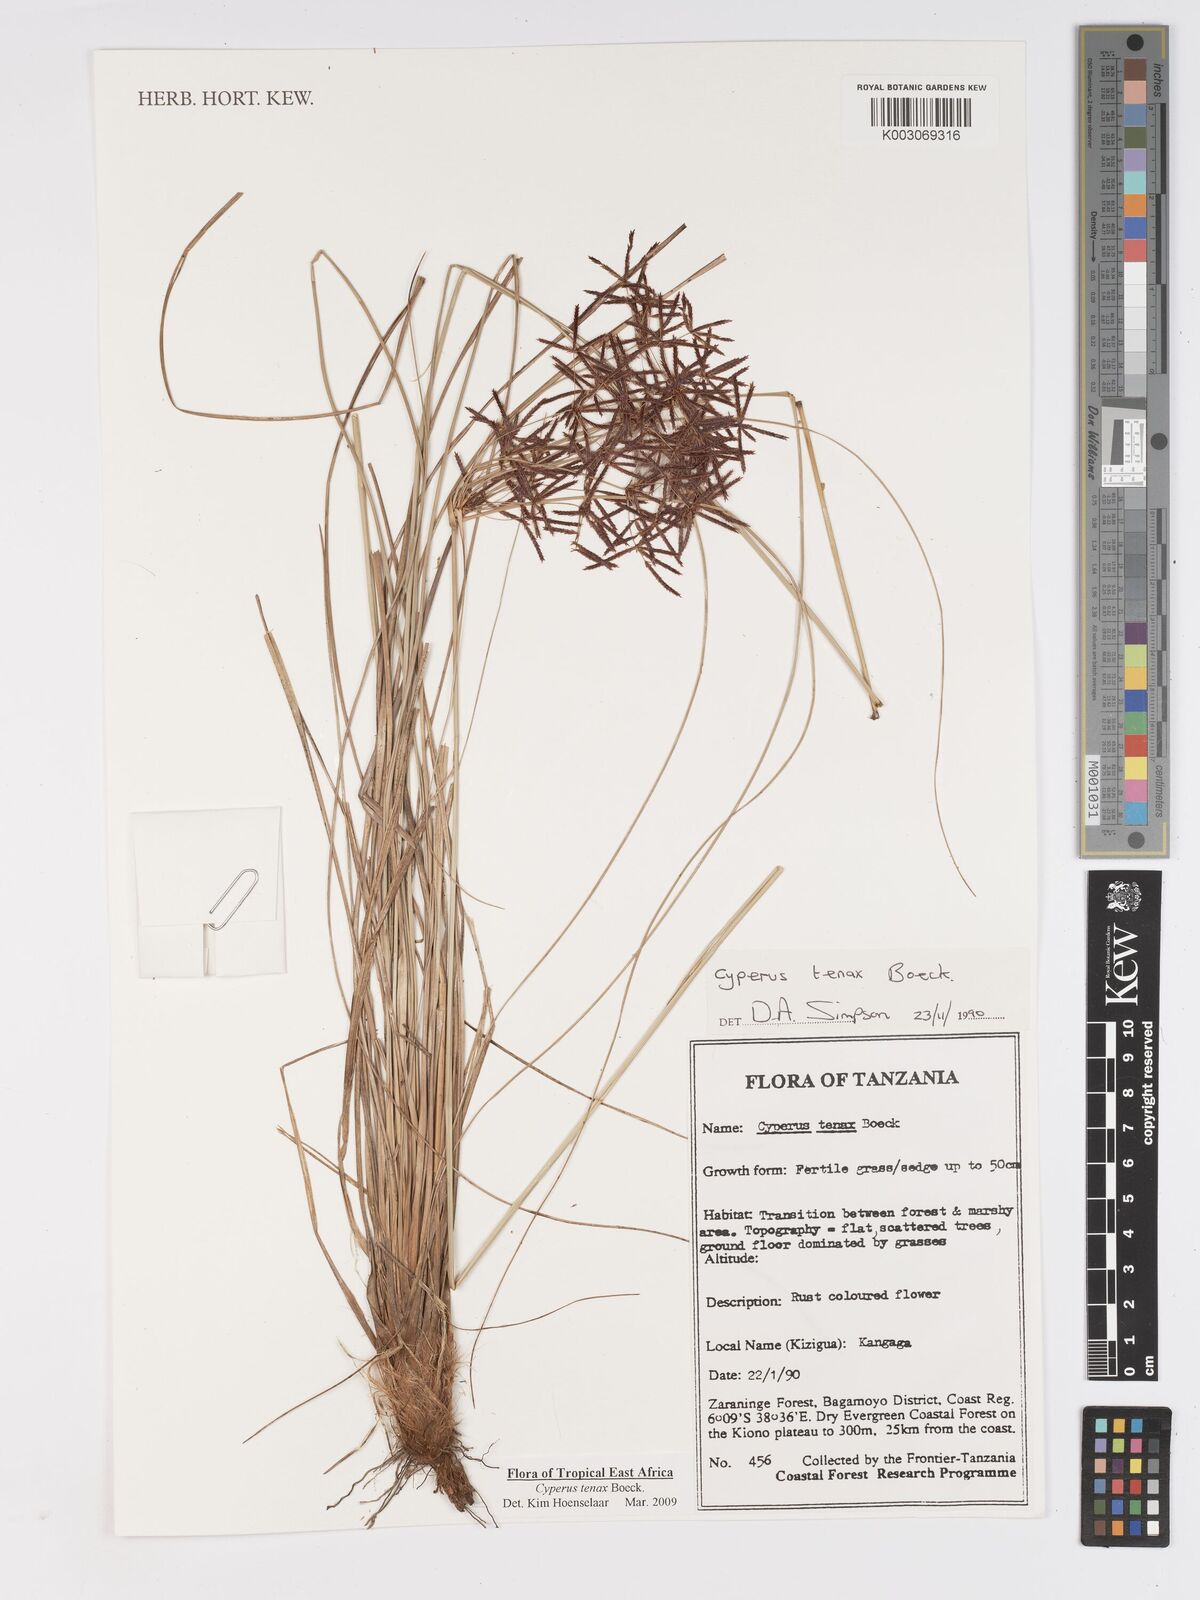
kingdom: Plantae
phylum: Tracheophyta
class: Liliopsida
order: Poales
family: Cyperaceae
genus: Cyperus
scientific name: Cyperus tenax
